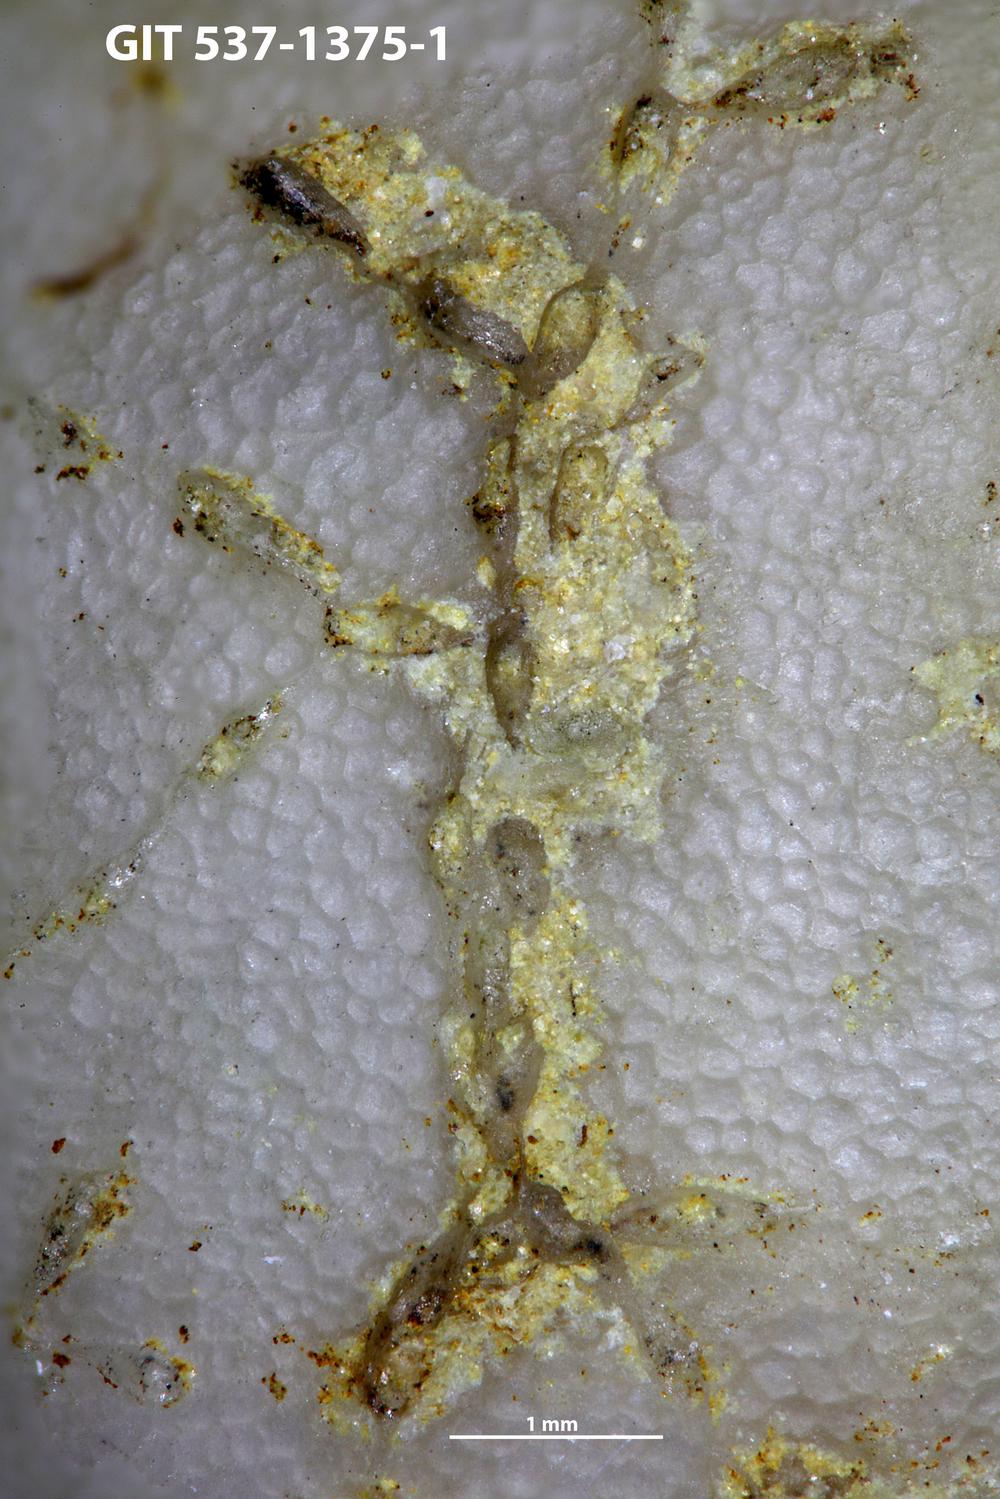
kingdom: Animalia
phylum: Bryozoa
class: Stenolaemata
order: Cyclostomatida
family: Corynotrypidae
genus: Corynotrypa
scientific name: Corynotrypa delicatula
